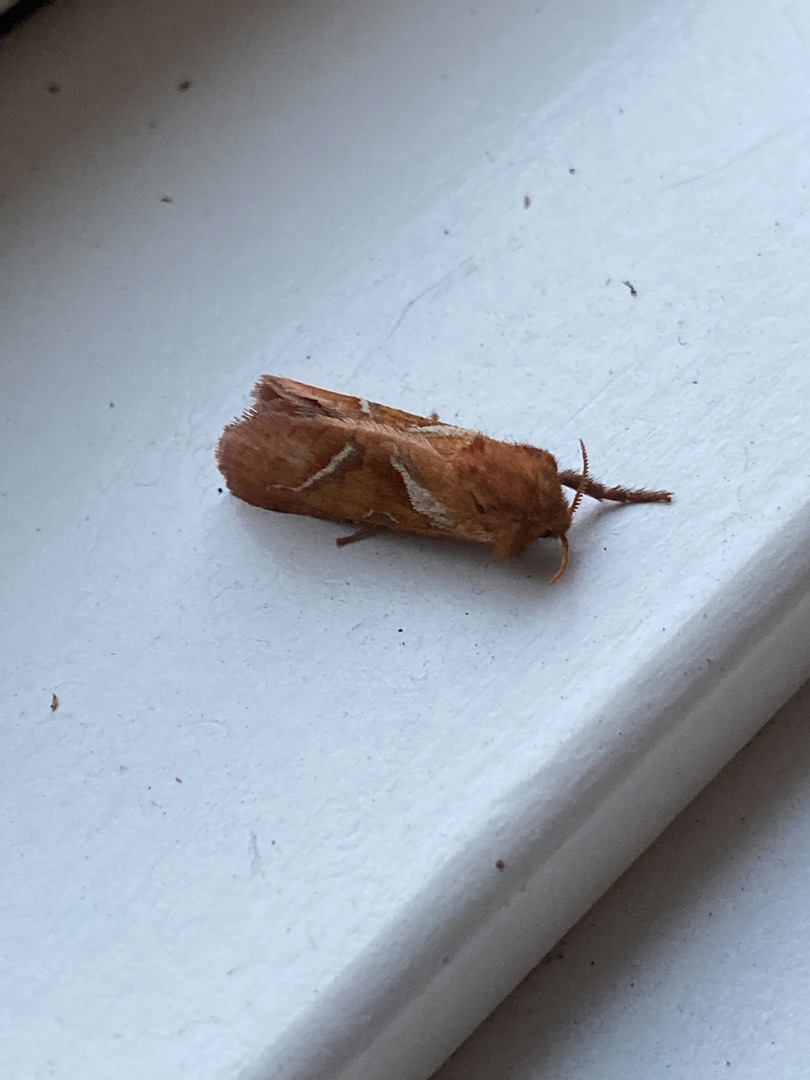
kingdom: Animalia
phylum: Arthropoda
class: Insecta
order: Lepidoptera
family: Hepialidae
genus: Triodia
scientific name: Triodia sylvina
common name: Skræpperodæder
